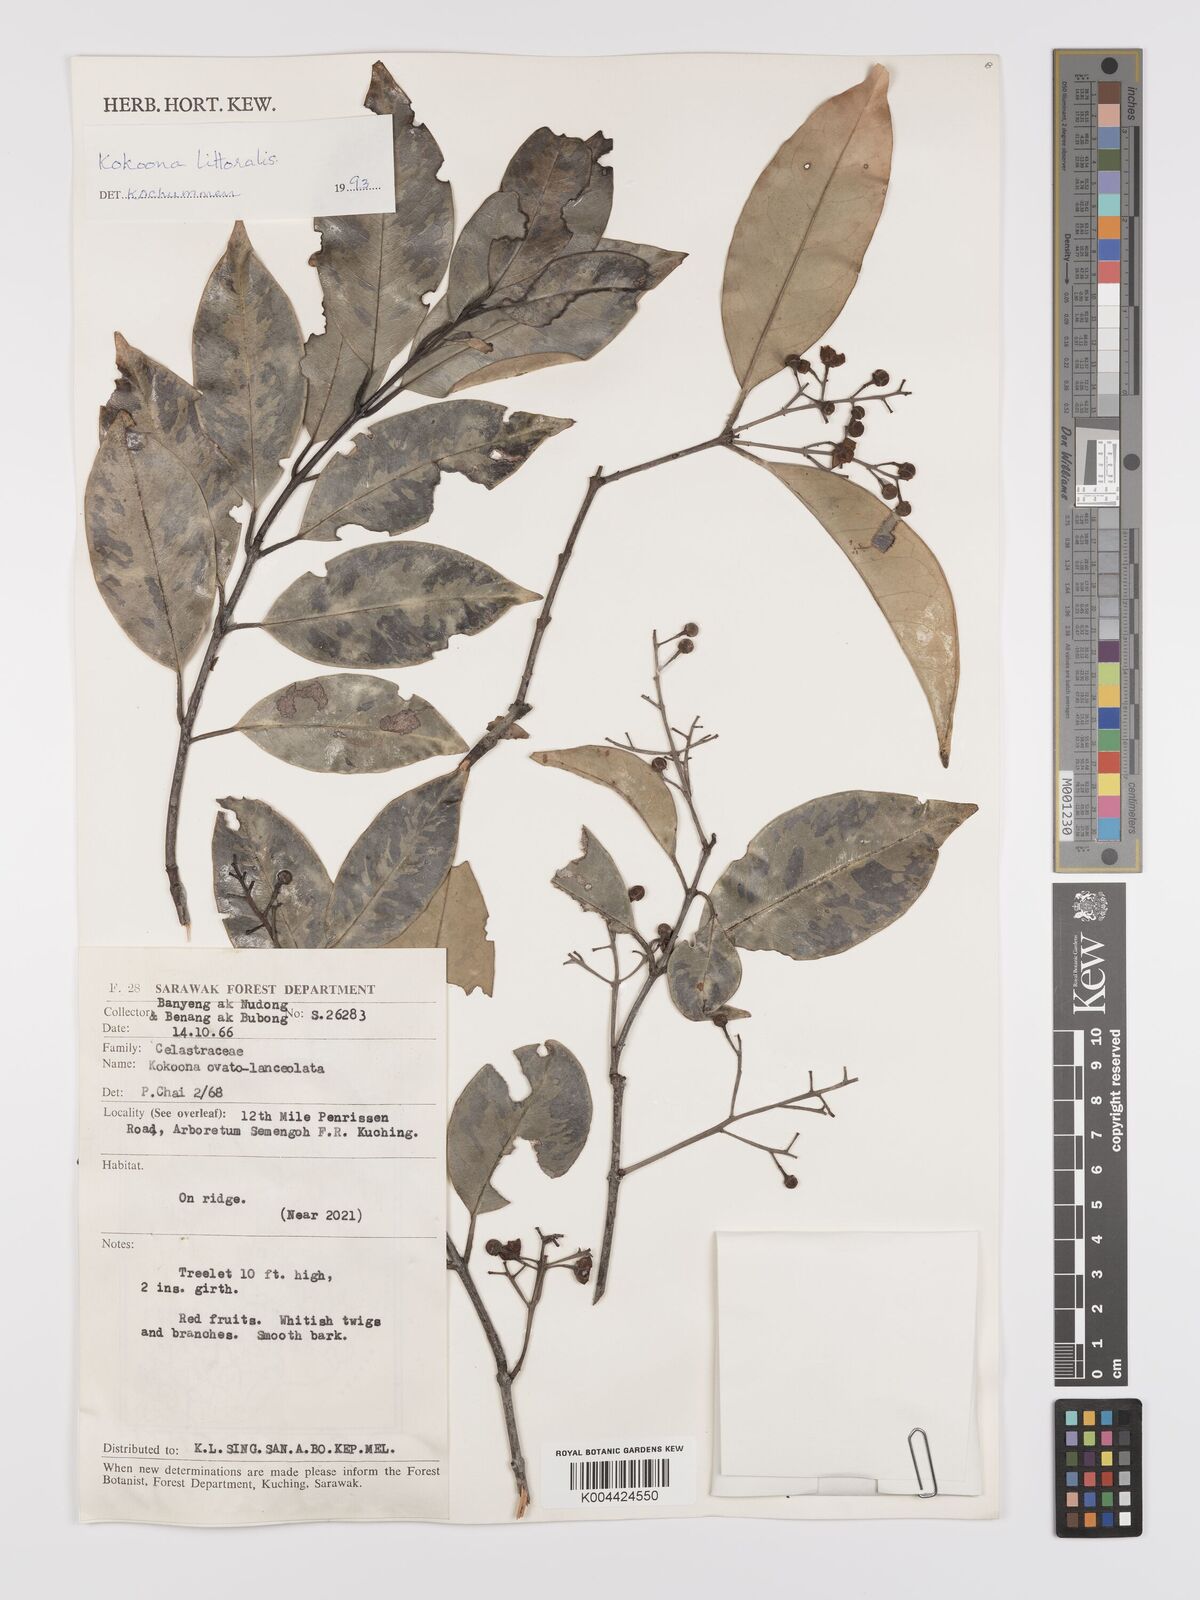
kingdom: Plantae
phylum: Tracheophyta
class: Magnoliopsida
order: Celastrales
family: Celastraceae
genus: Kokoona
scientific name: Kokoona littoralis
